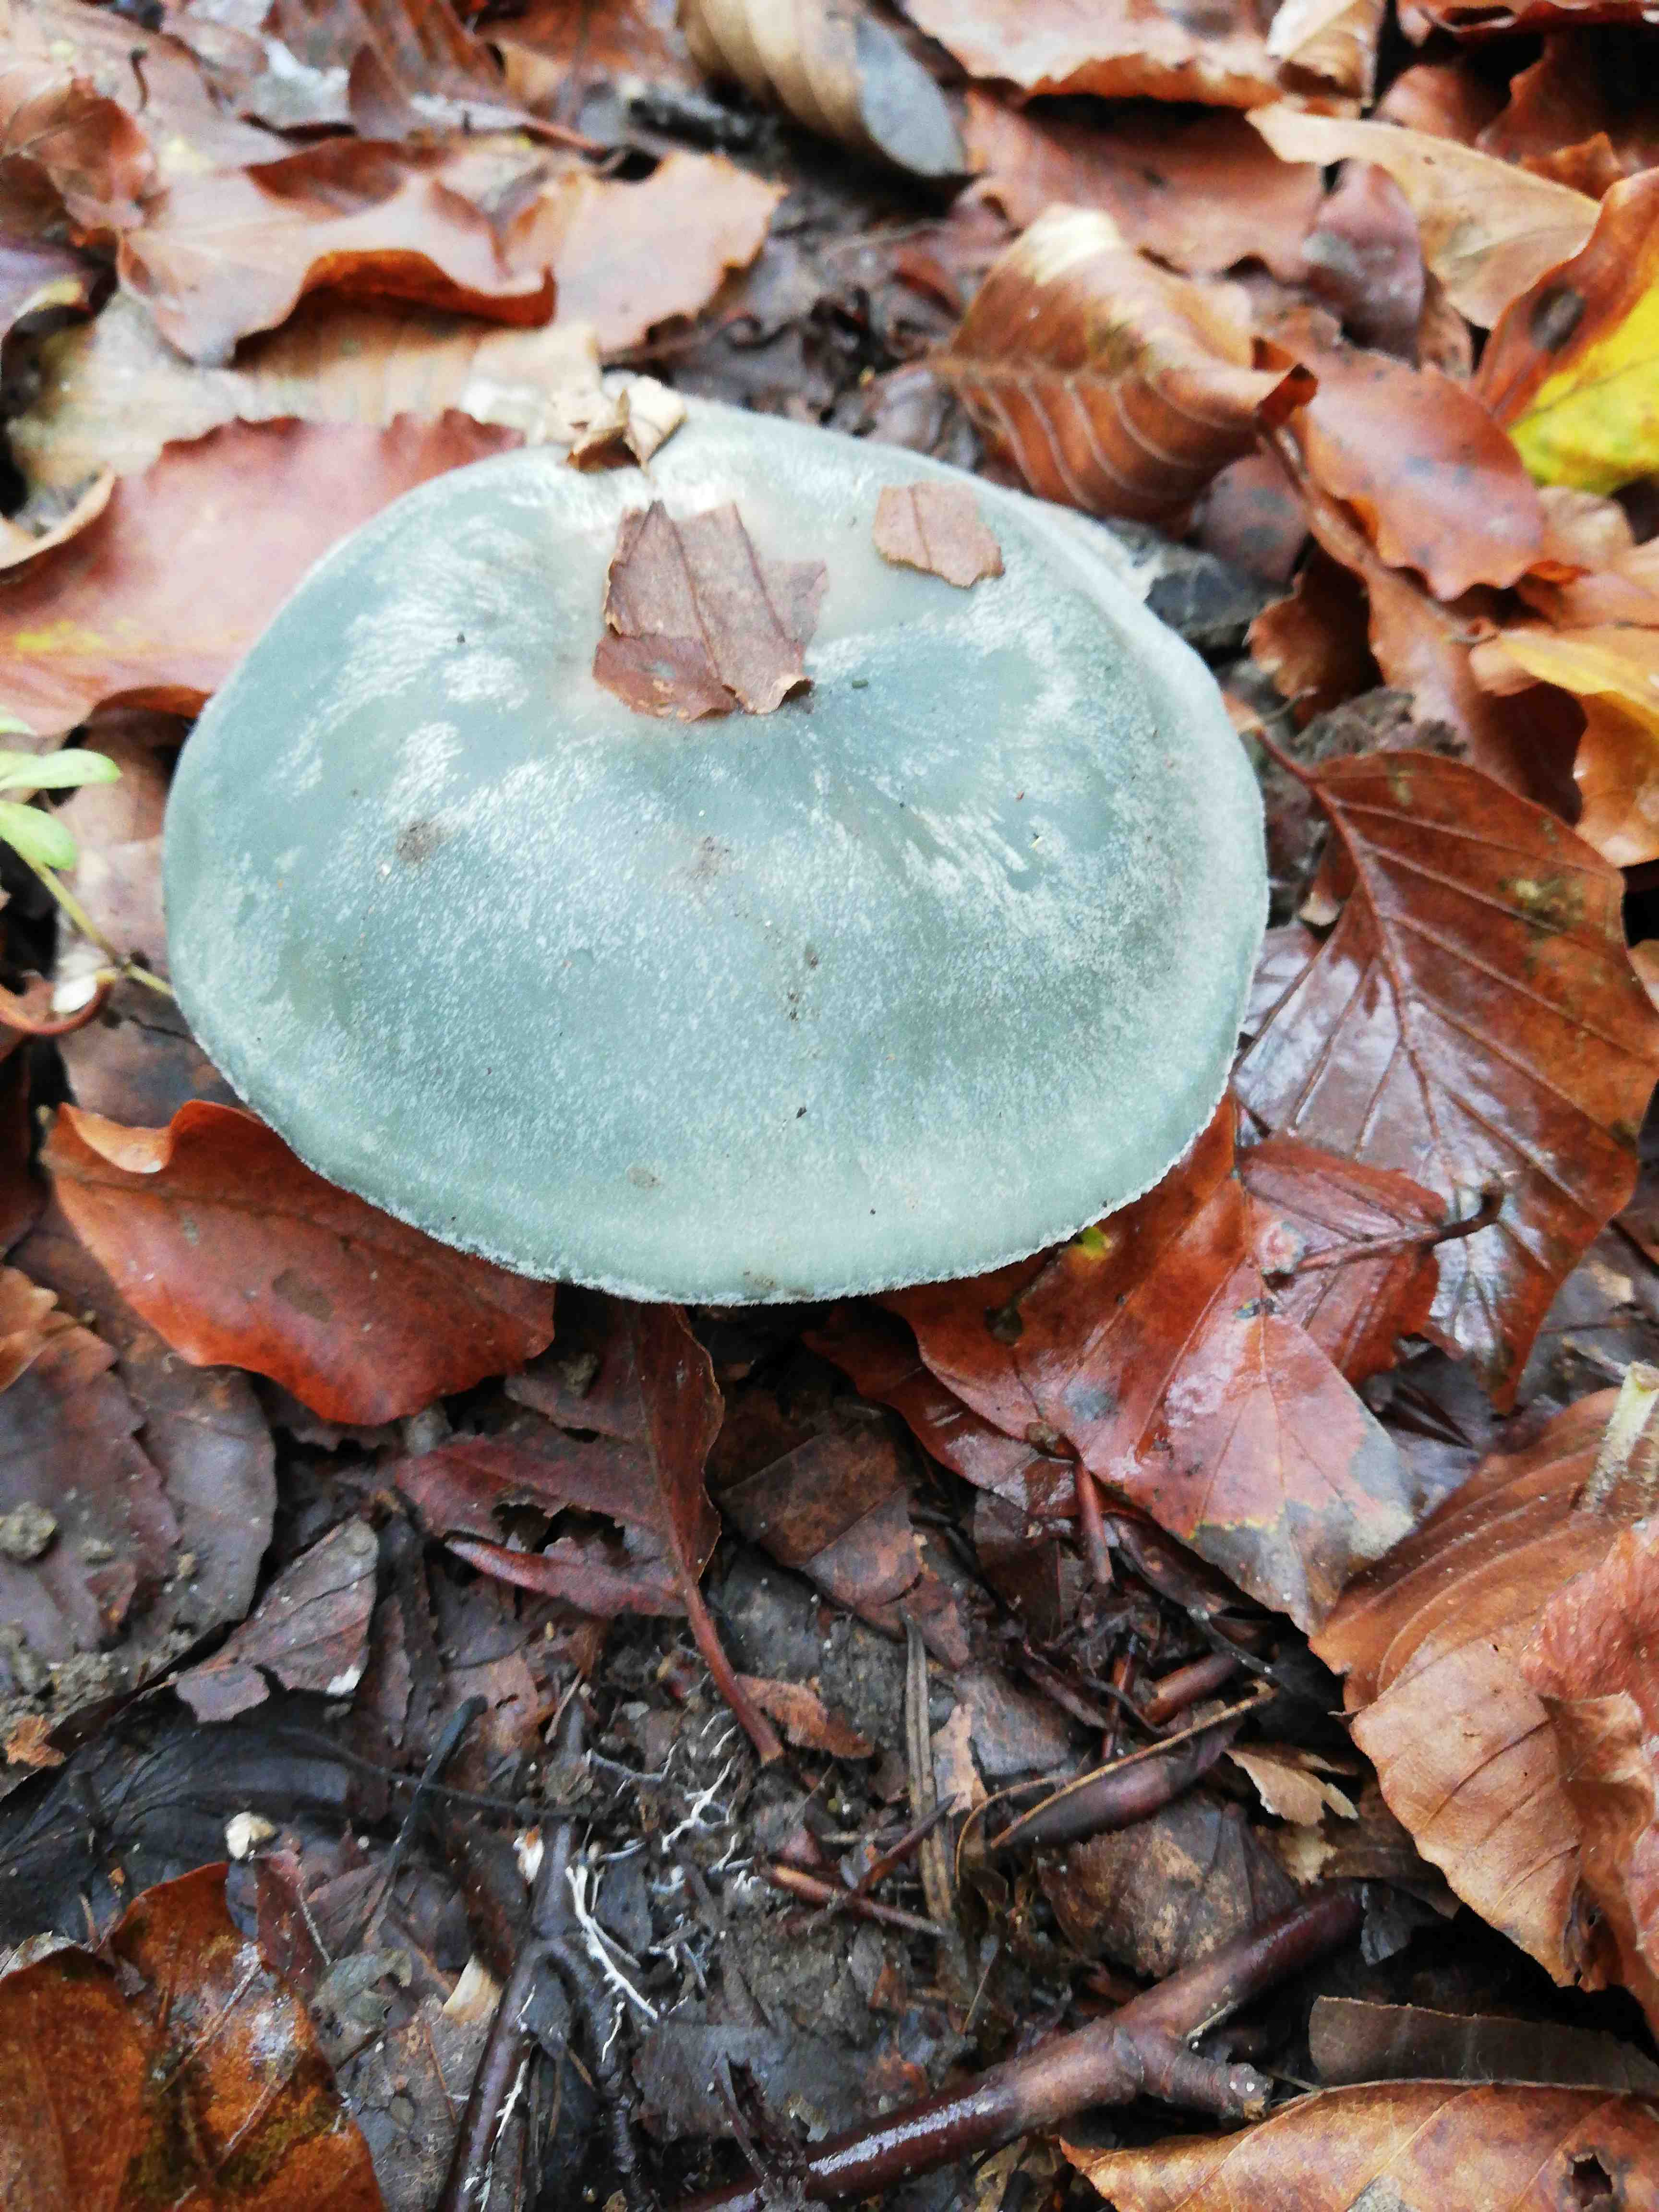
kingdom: Fungi
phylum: Basidiomycota
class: Agaricomycetes
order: Agaricales
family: Psathyrellaceae
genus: Coprinopsis
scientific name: Coprinopsis picacea
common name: skade-blækhat
